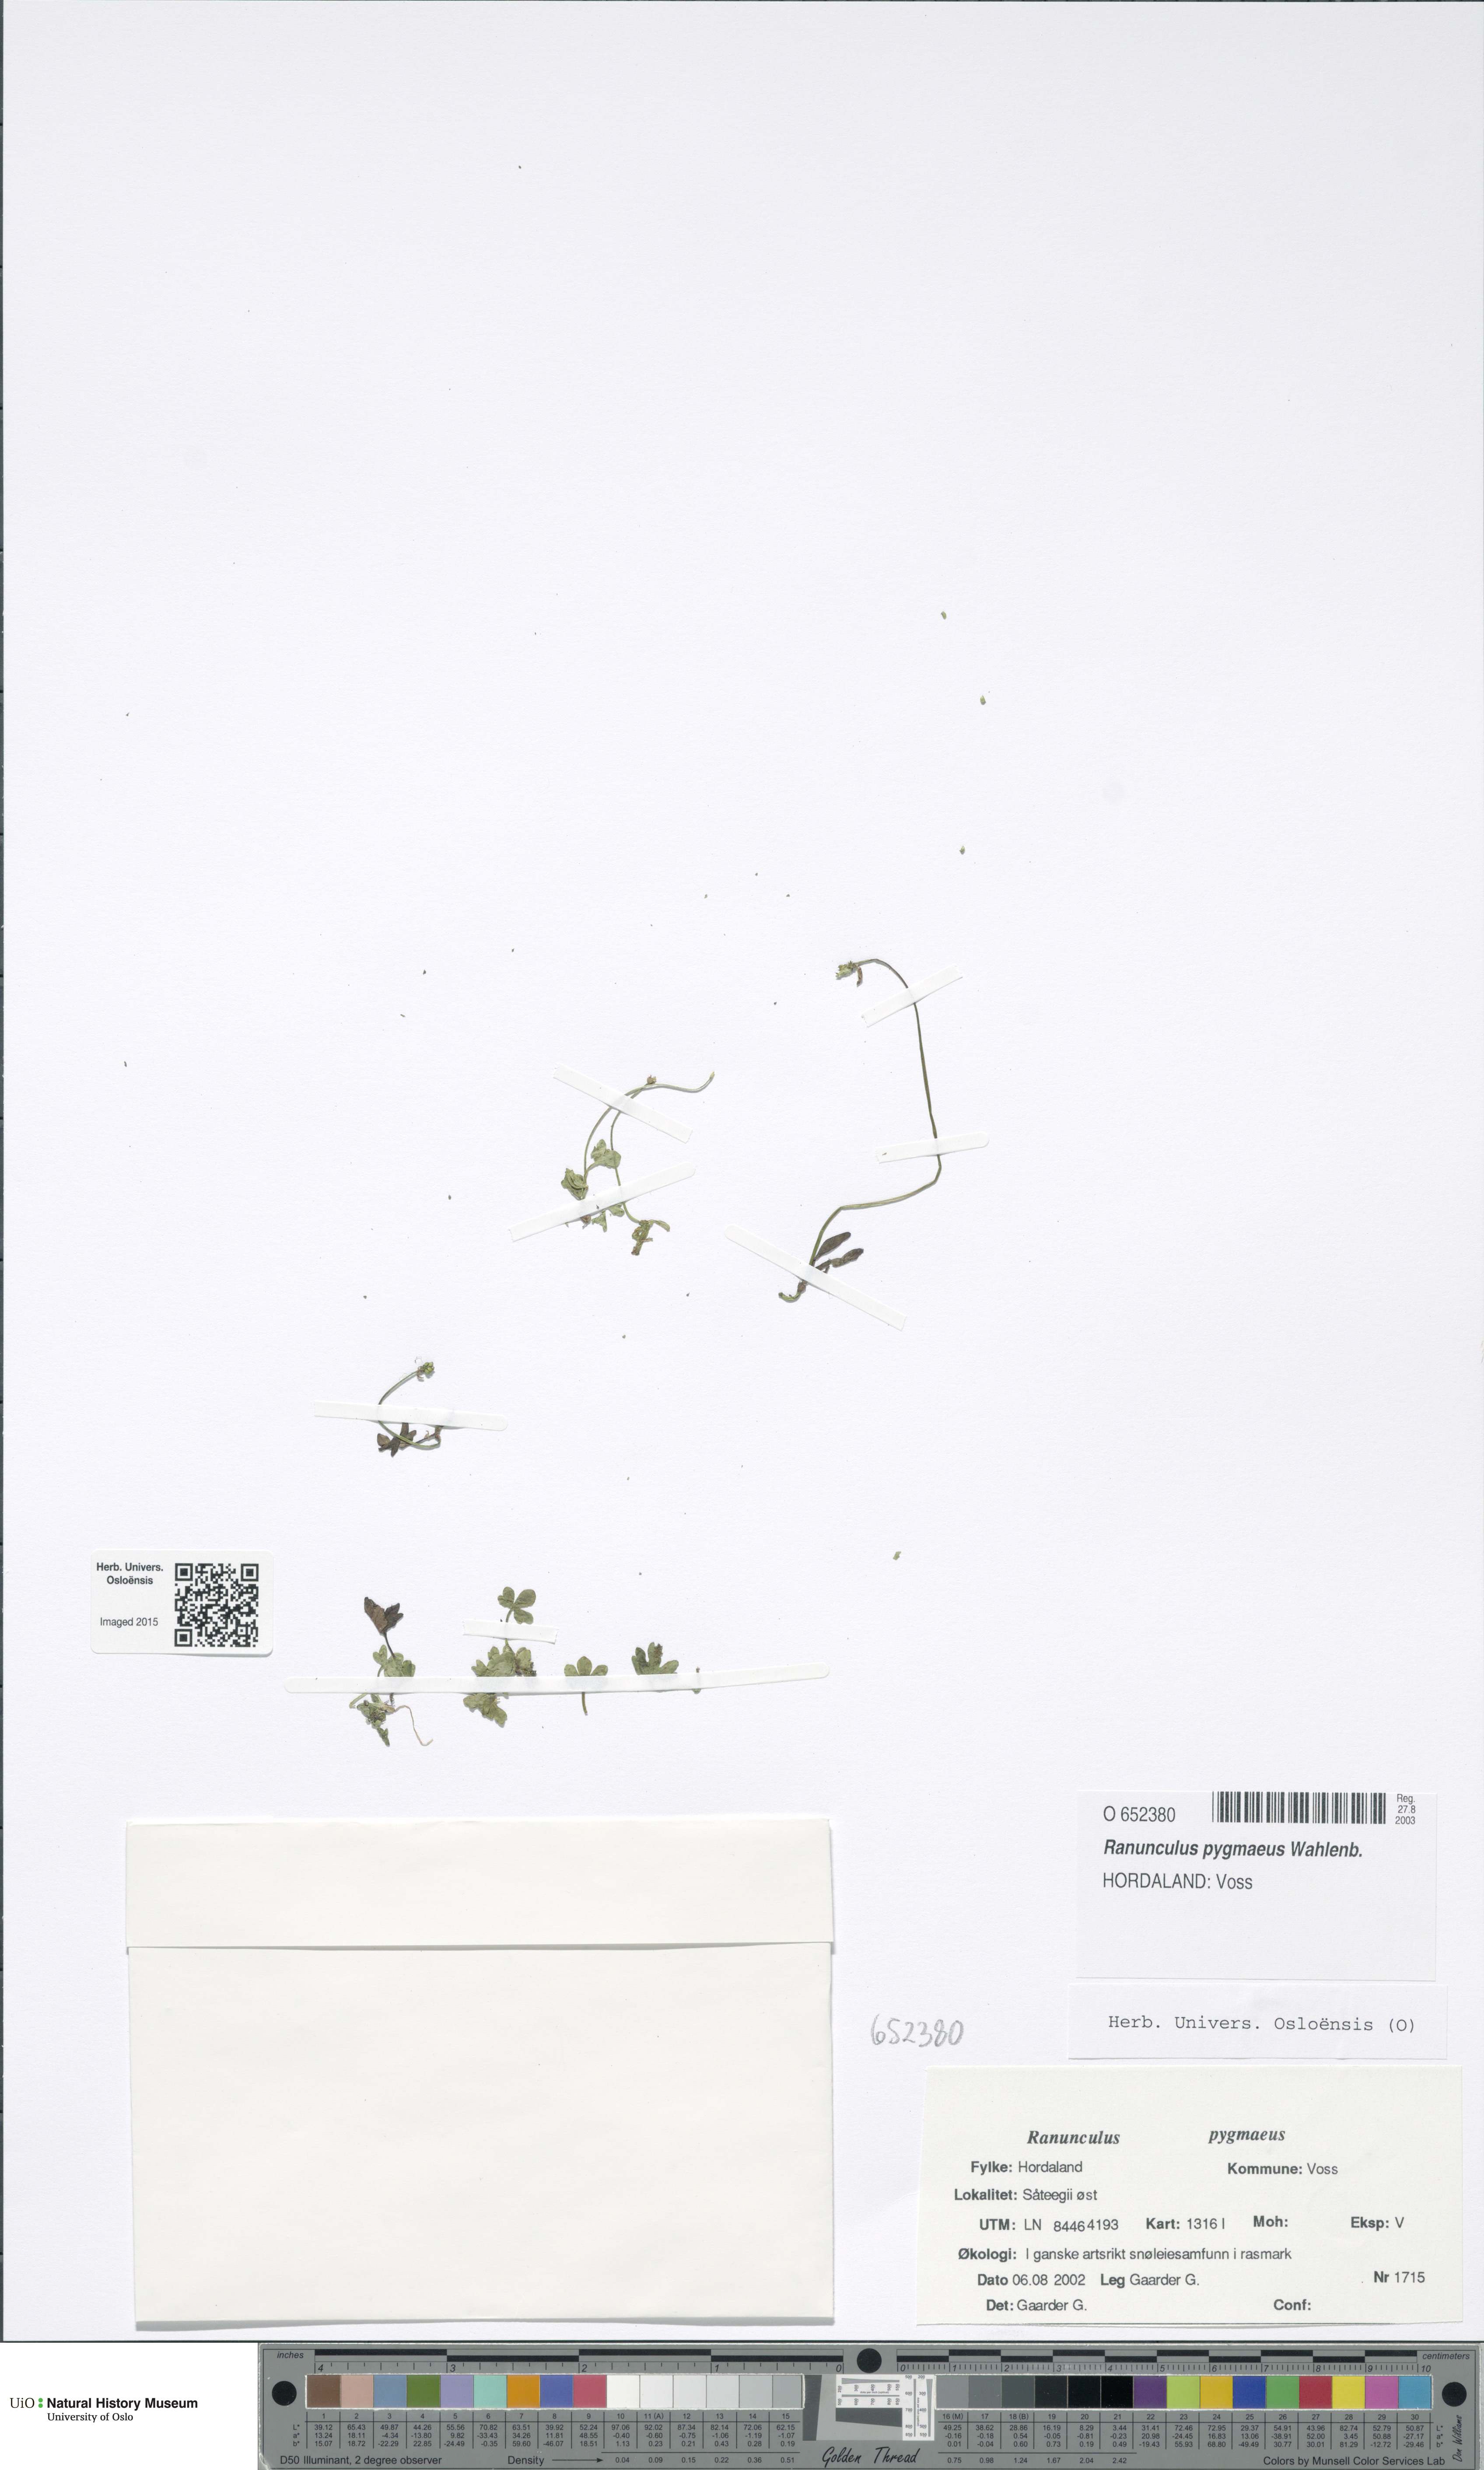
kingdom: Plantae
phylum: Tracheophyta
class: Magnoliopsida
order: Ranunculales
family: Ranunculaceae
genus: Ranunculus
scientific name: Ranunculus pygmaeus
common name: Dwarf buttercup
